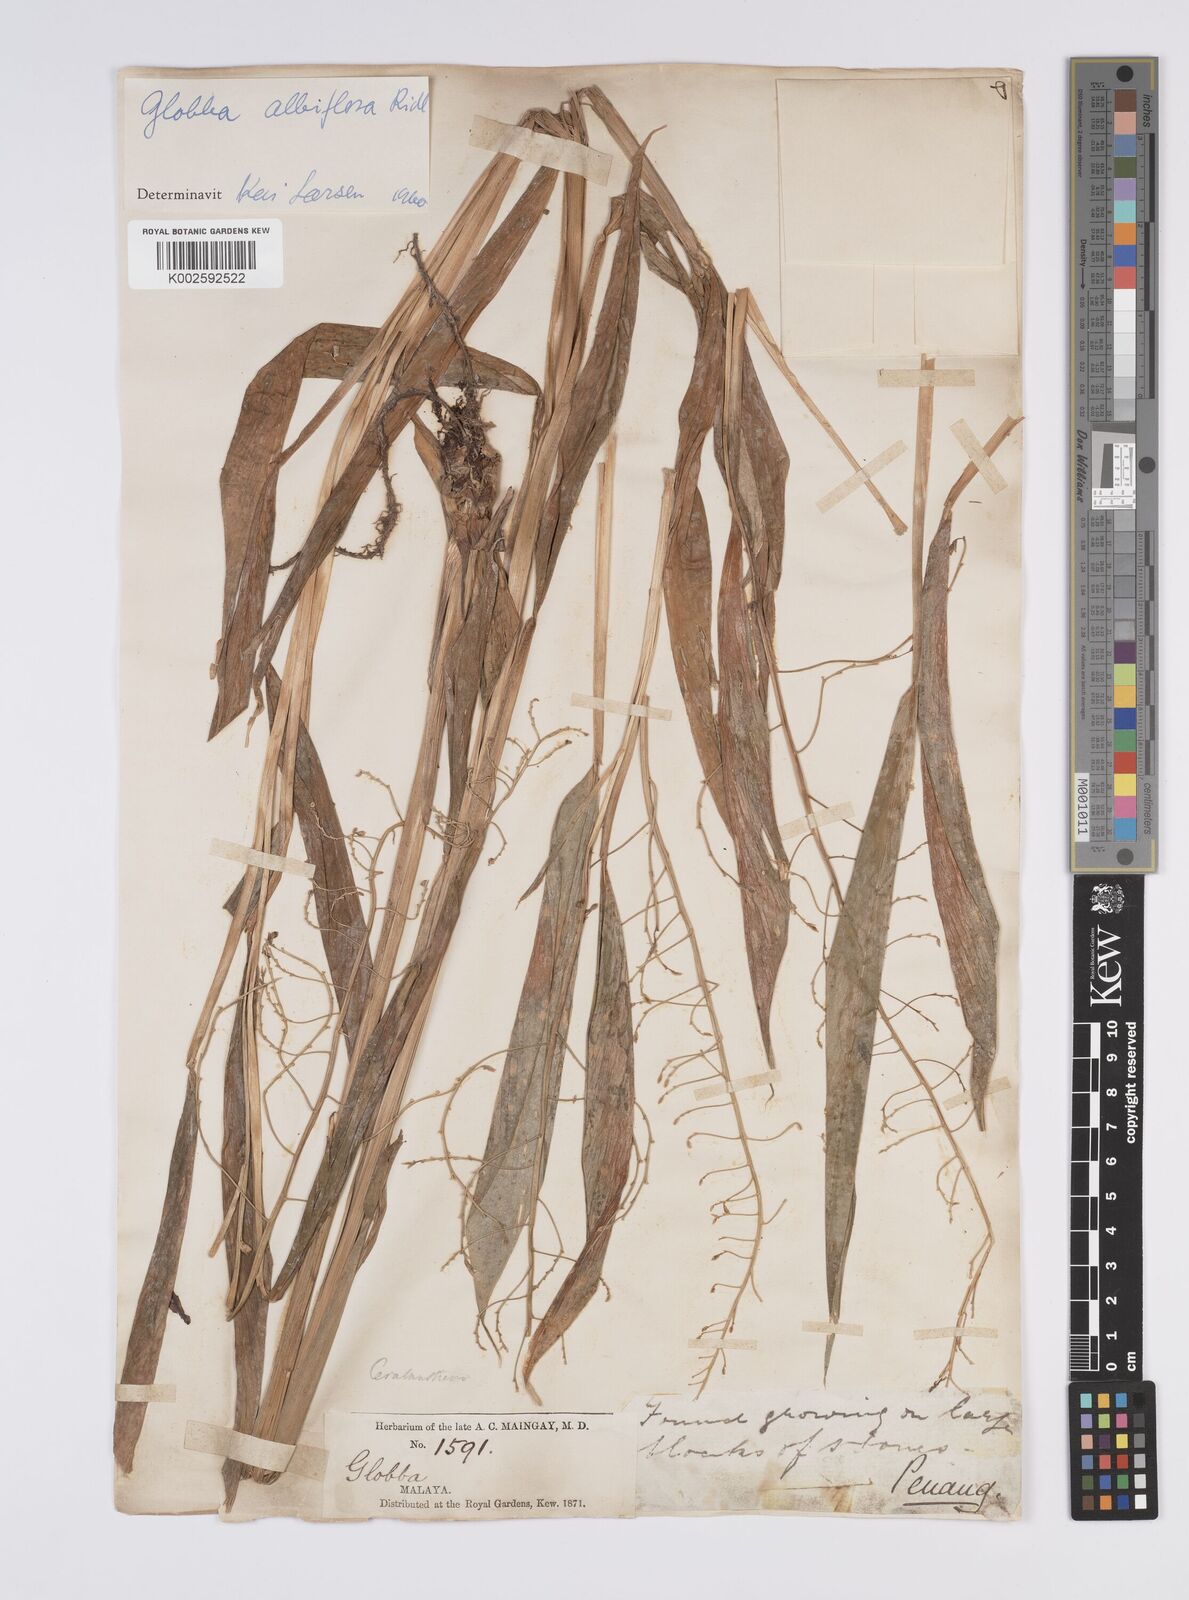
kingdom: Plantae
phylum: Tracheophyta
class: Liliopsida
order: Zingiberales
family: Zingiberaceae
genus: Globba
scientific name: Globba albiflora
